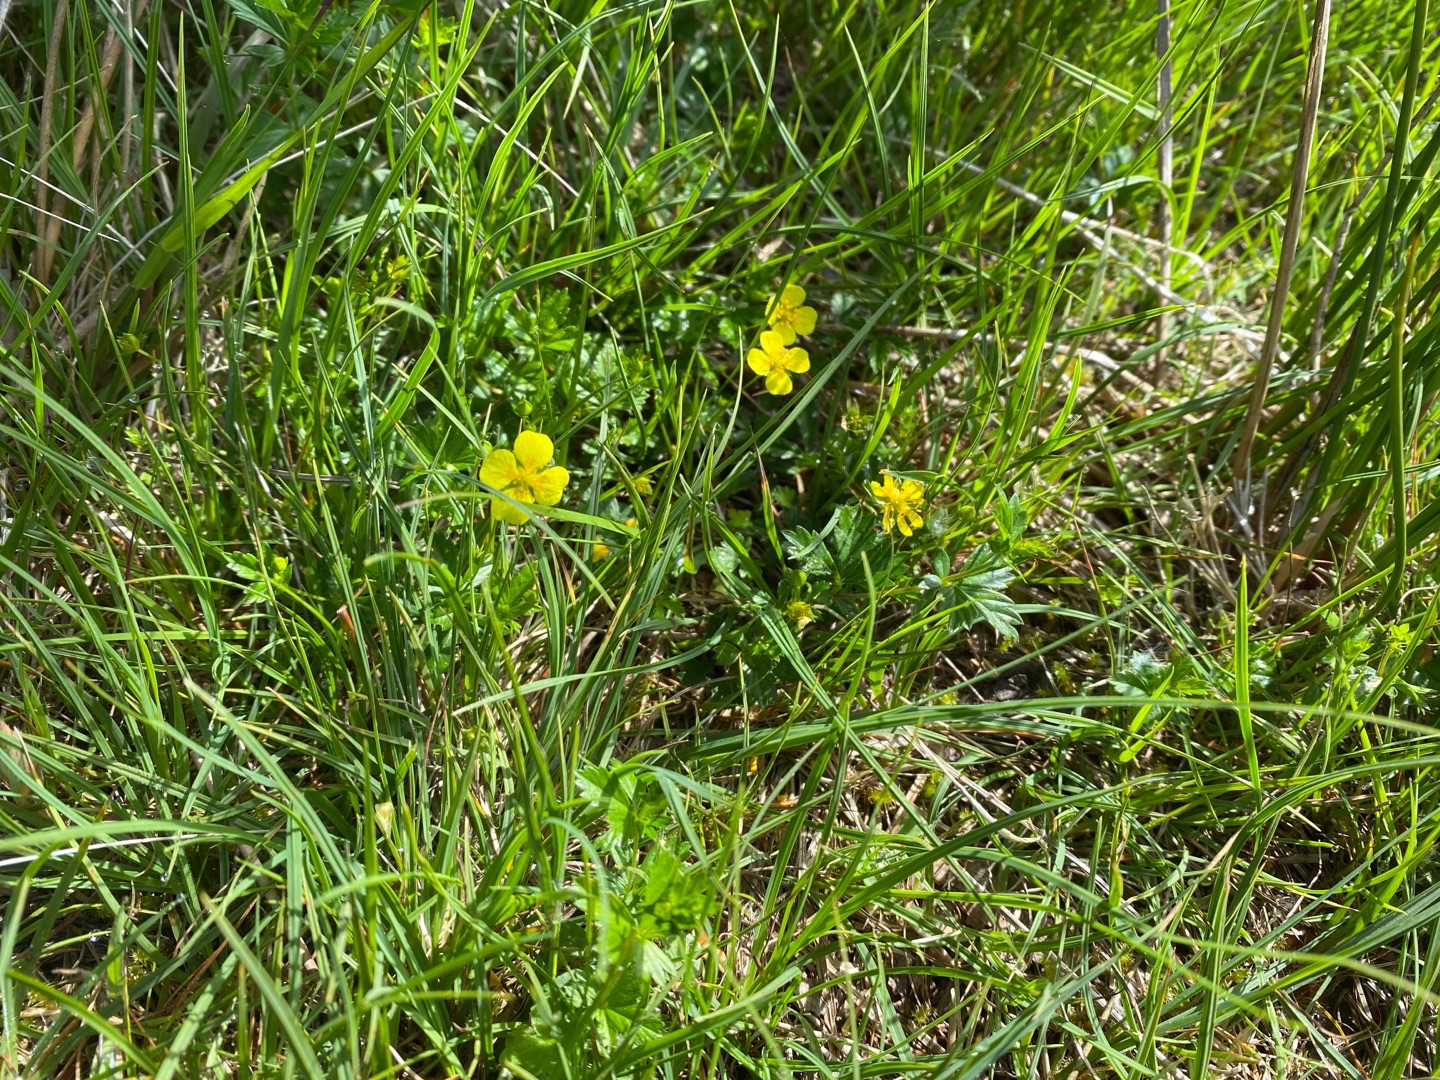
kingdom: Plantae
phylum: Tracheophyta
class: Magnoliopsida
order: Rosales
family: Rosaceae
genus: Potentilla
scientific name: Potentilla erecta
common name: Tormentil
